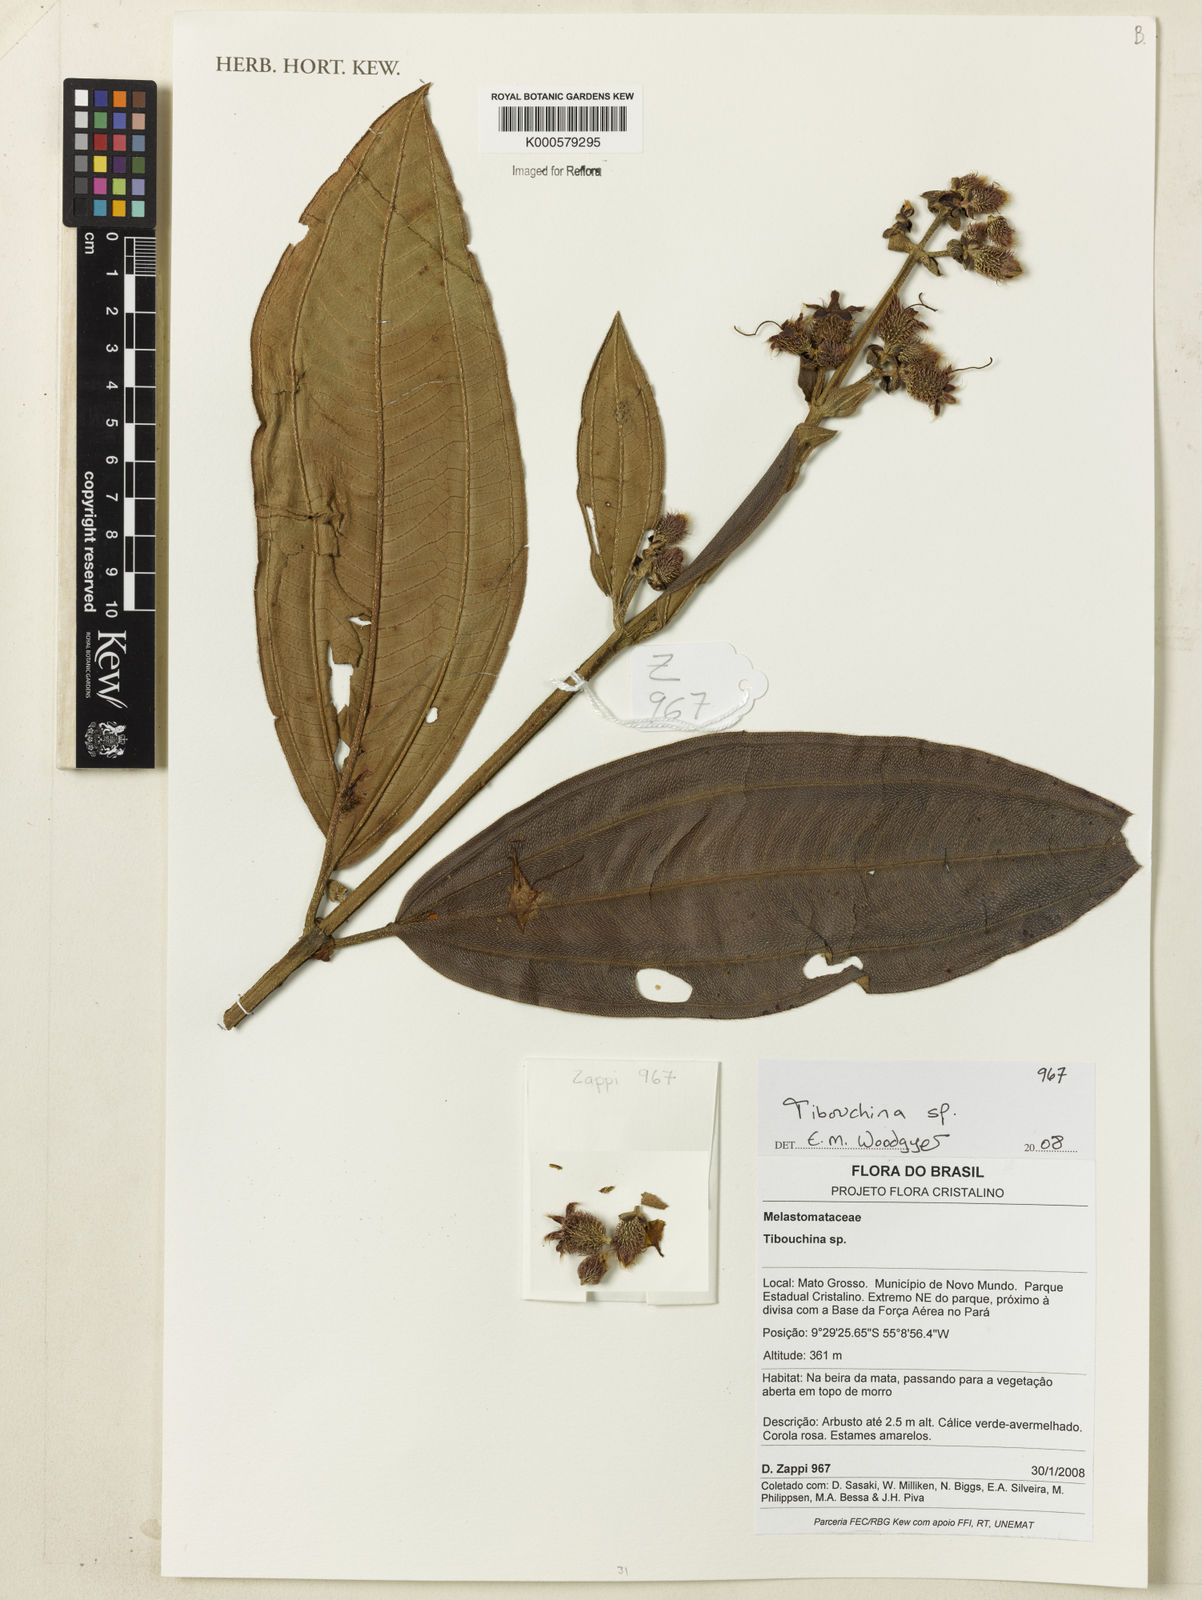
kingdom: Plantae
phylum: Tracheophyta
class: Magnoliopsida
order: Myrtales
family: Melastomataceae
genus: Tibouchina
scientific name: Tibouchina
